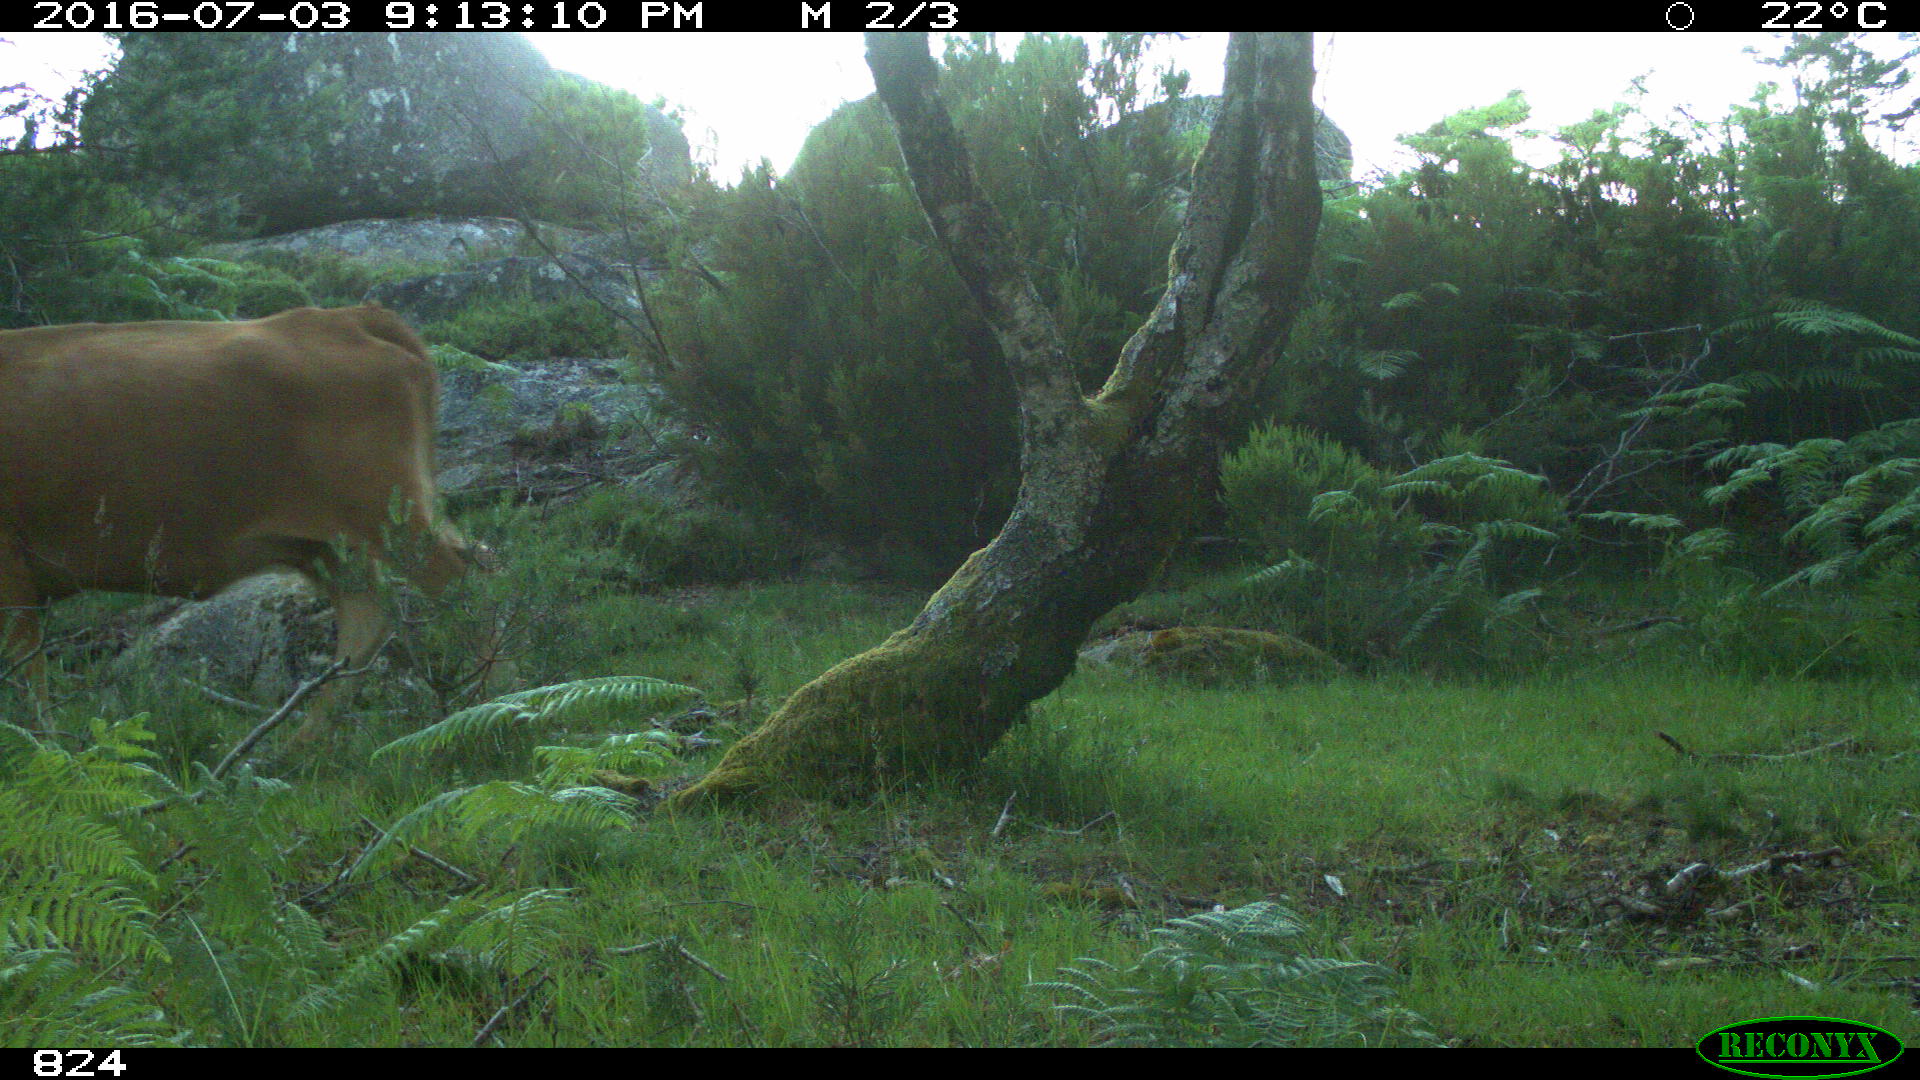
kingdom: Animalia
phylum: Chordata
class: Mammalia
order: Artiodactyla
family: Bovidae
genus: Bos
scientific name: Bos taurus
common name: Domesticated cattle
